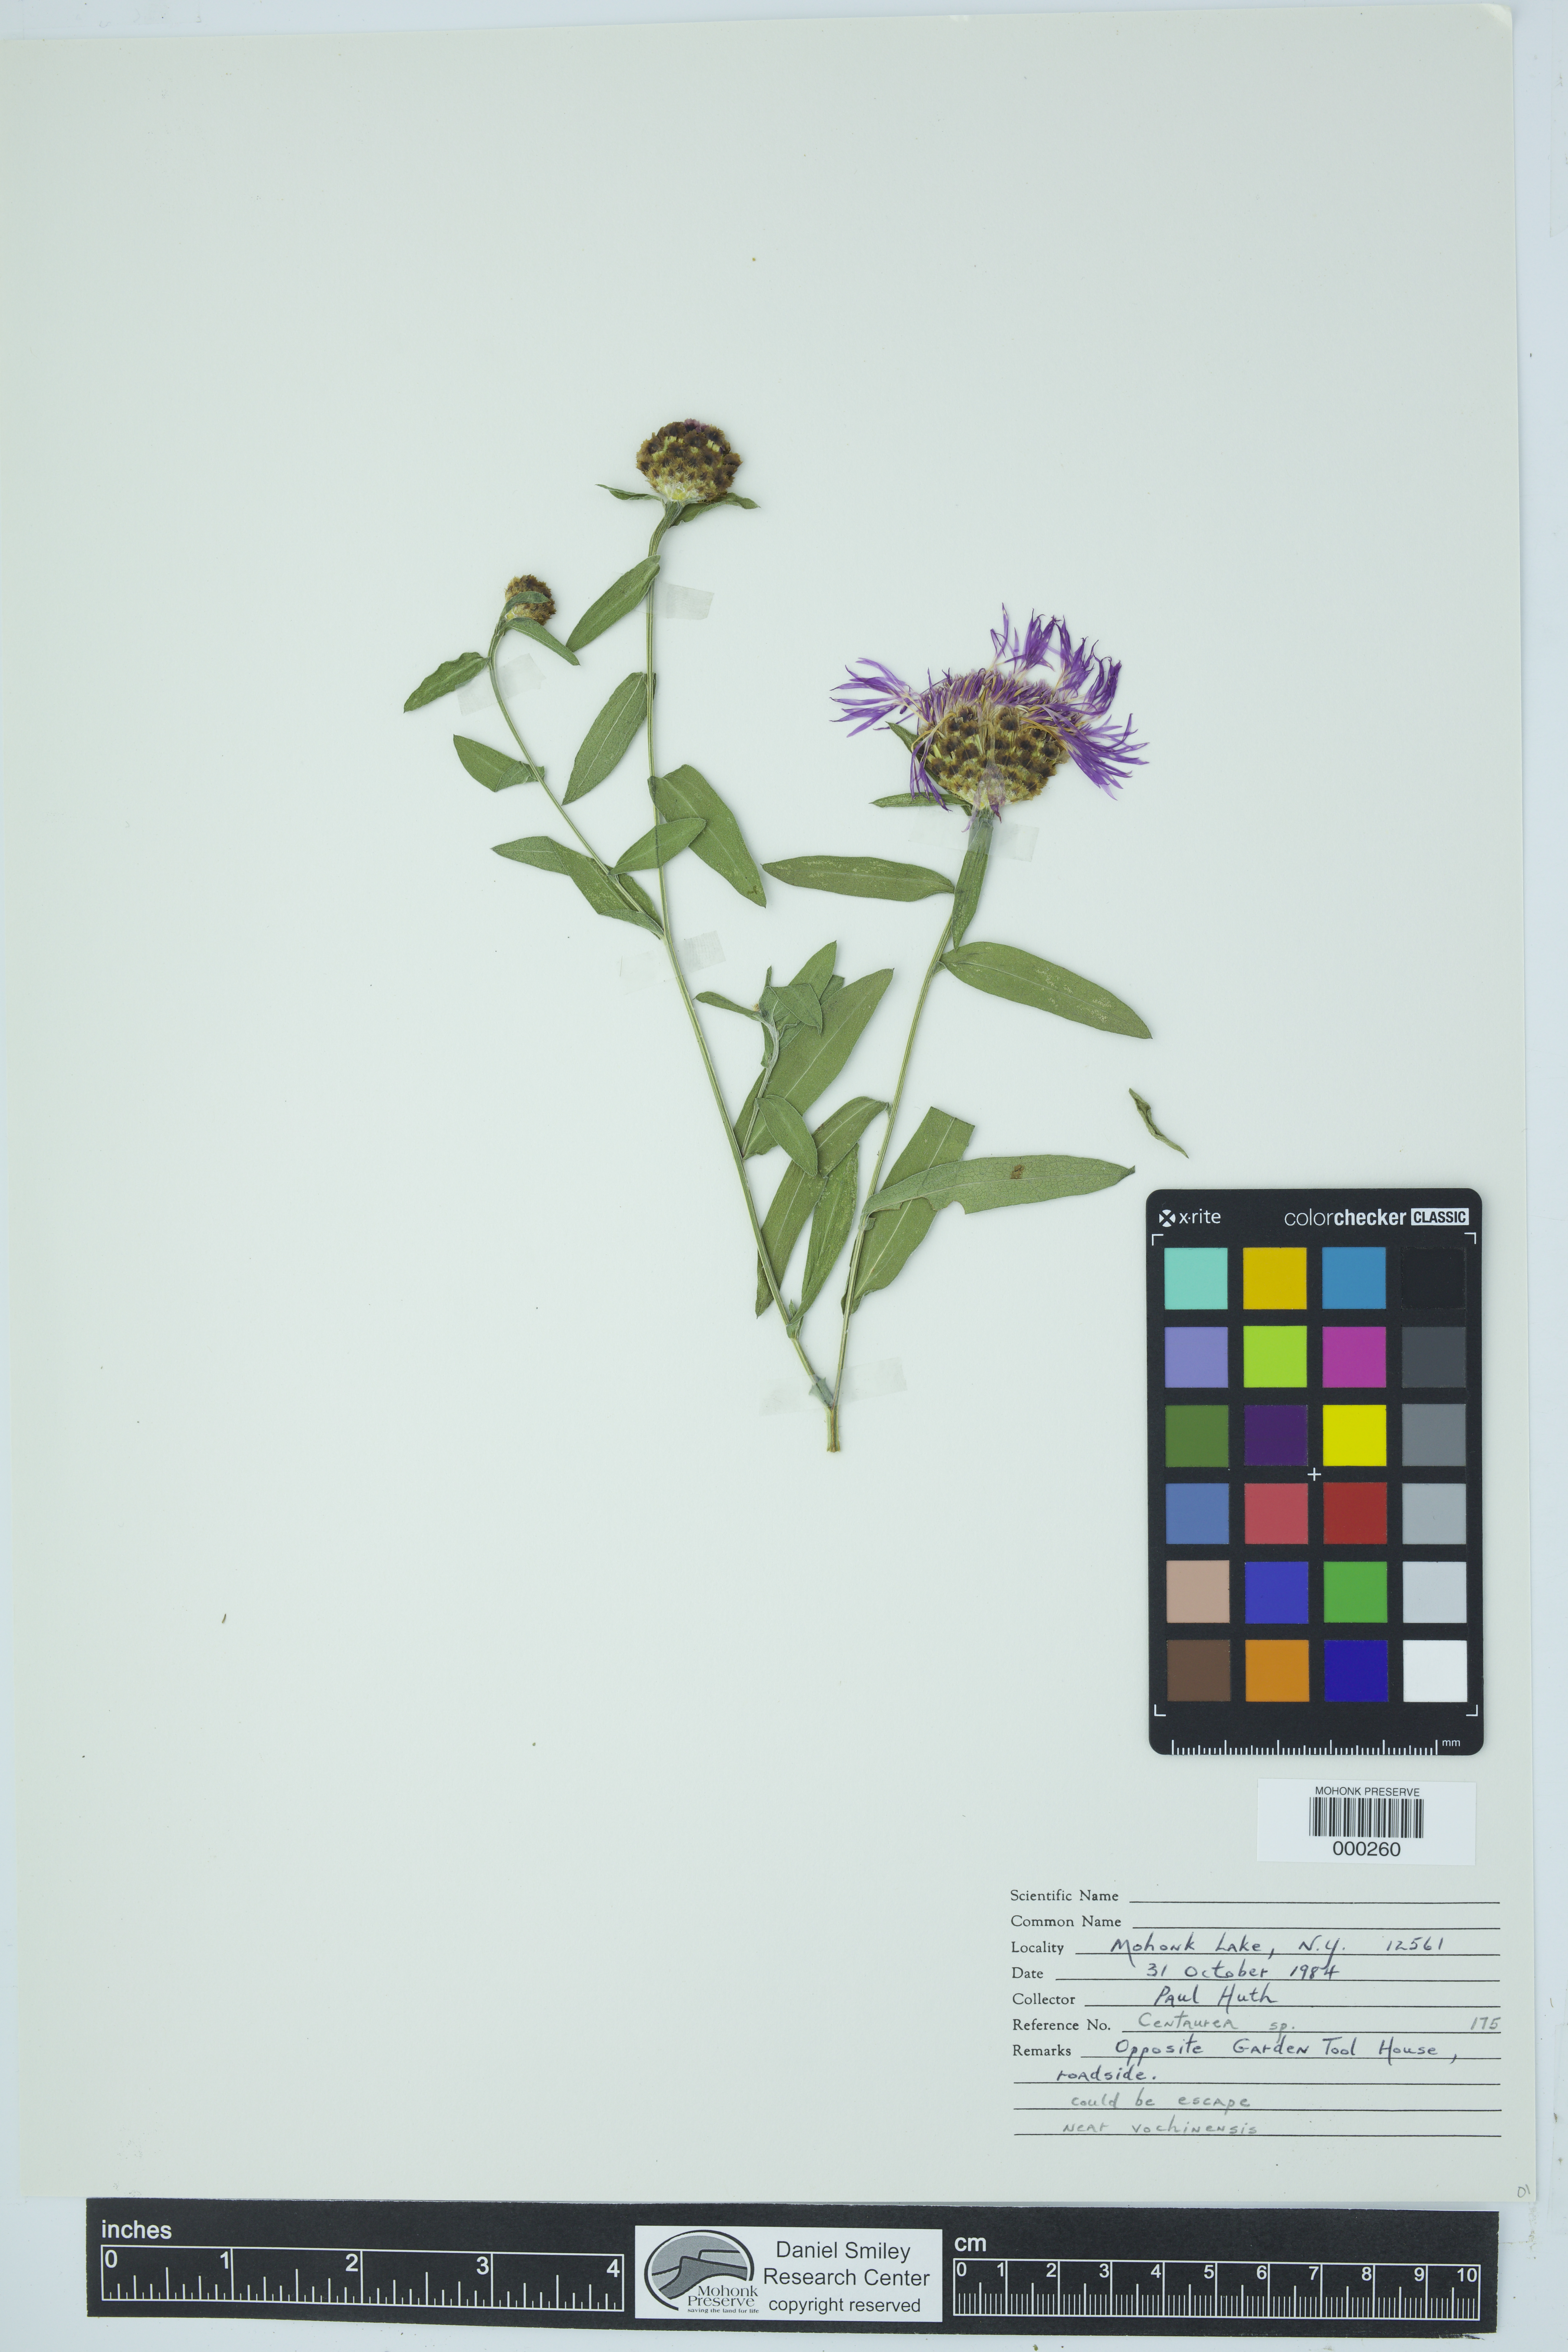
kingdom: Plantae
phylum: Tracheophyta
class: Magnoliopsida
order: Asterales
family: Asteraceae
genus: Centaurea
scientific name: Centaurea
